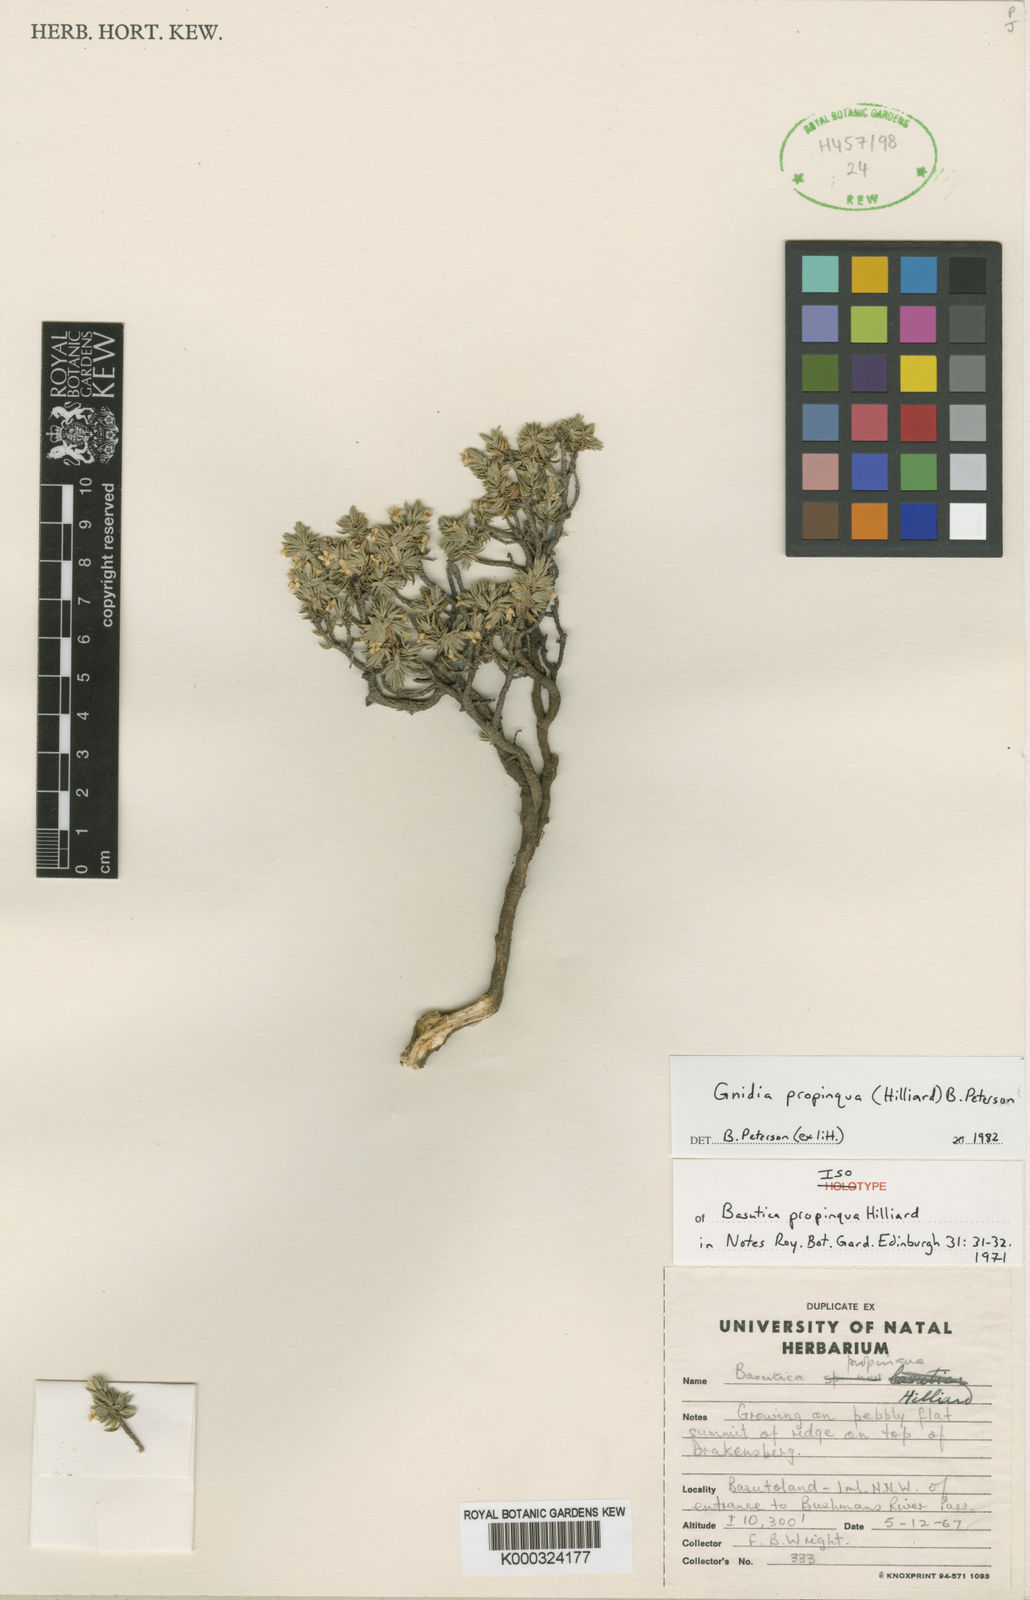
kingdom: Plantae
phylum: Tracheophyta
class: Magnoliopsida
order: Malvales
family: Thymelaeaceae
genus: Gnidia
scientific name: Gnidia propinqua
